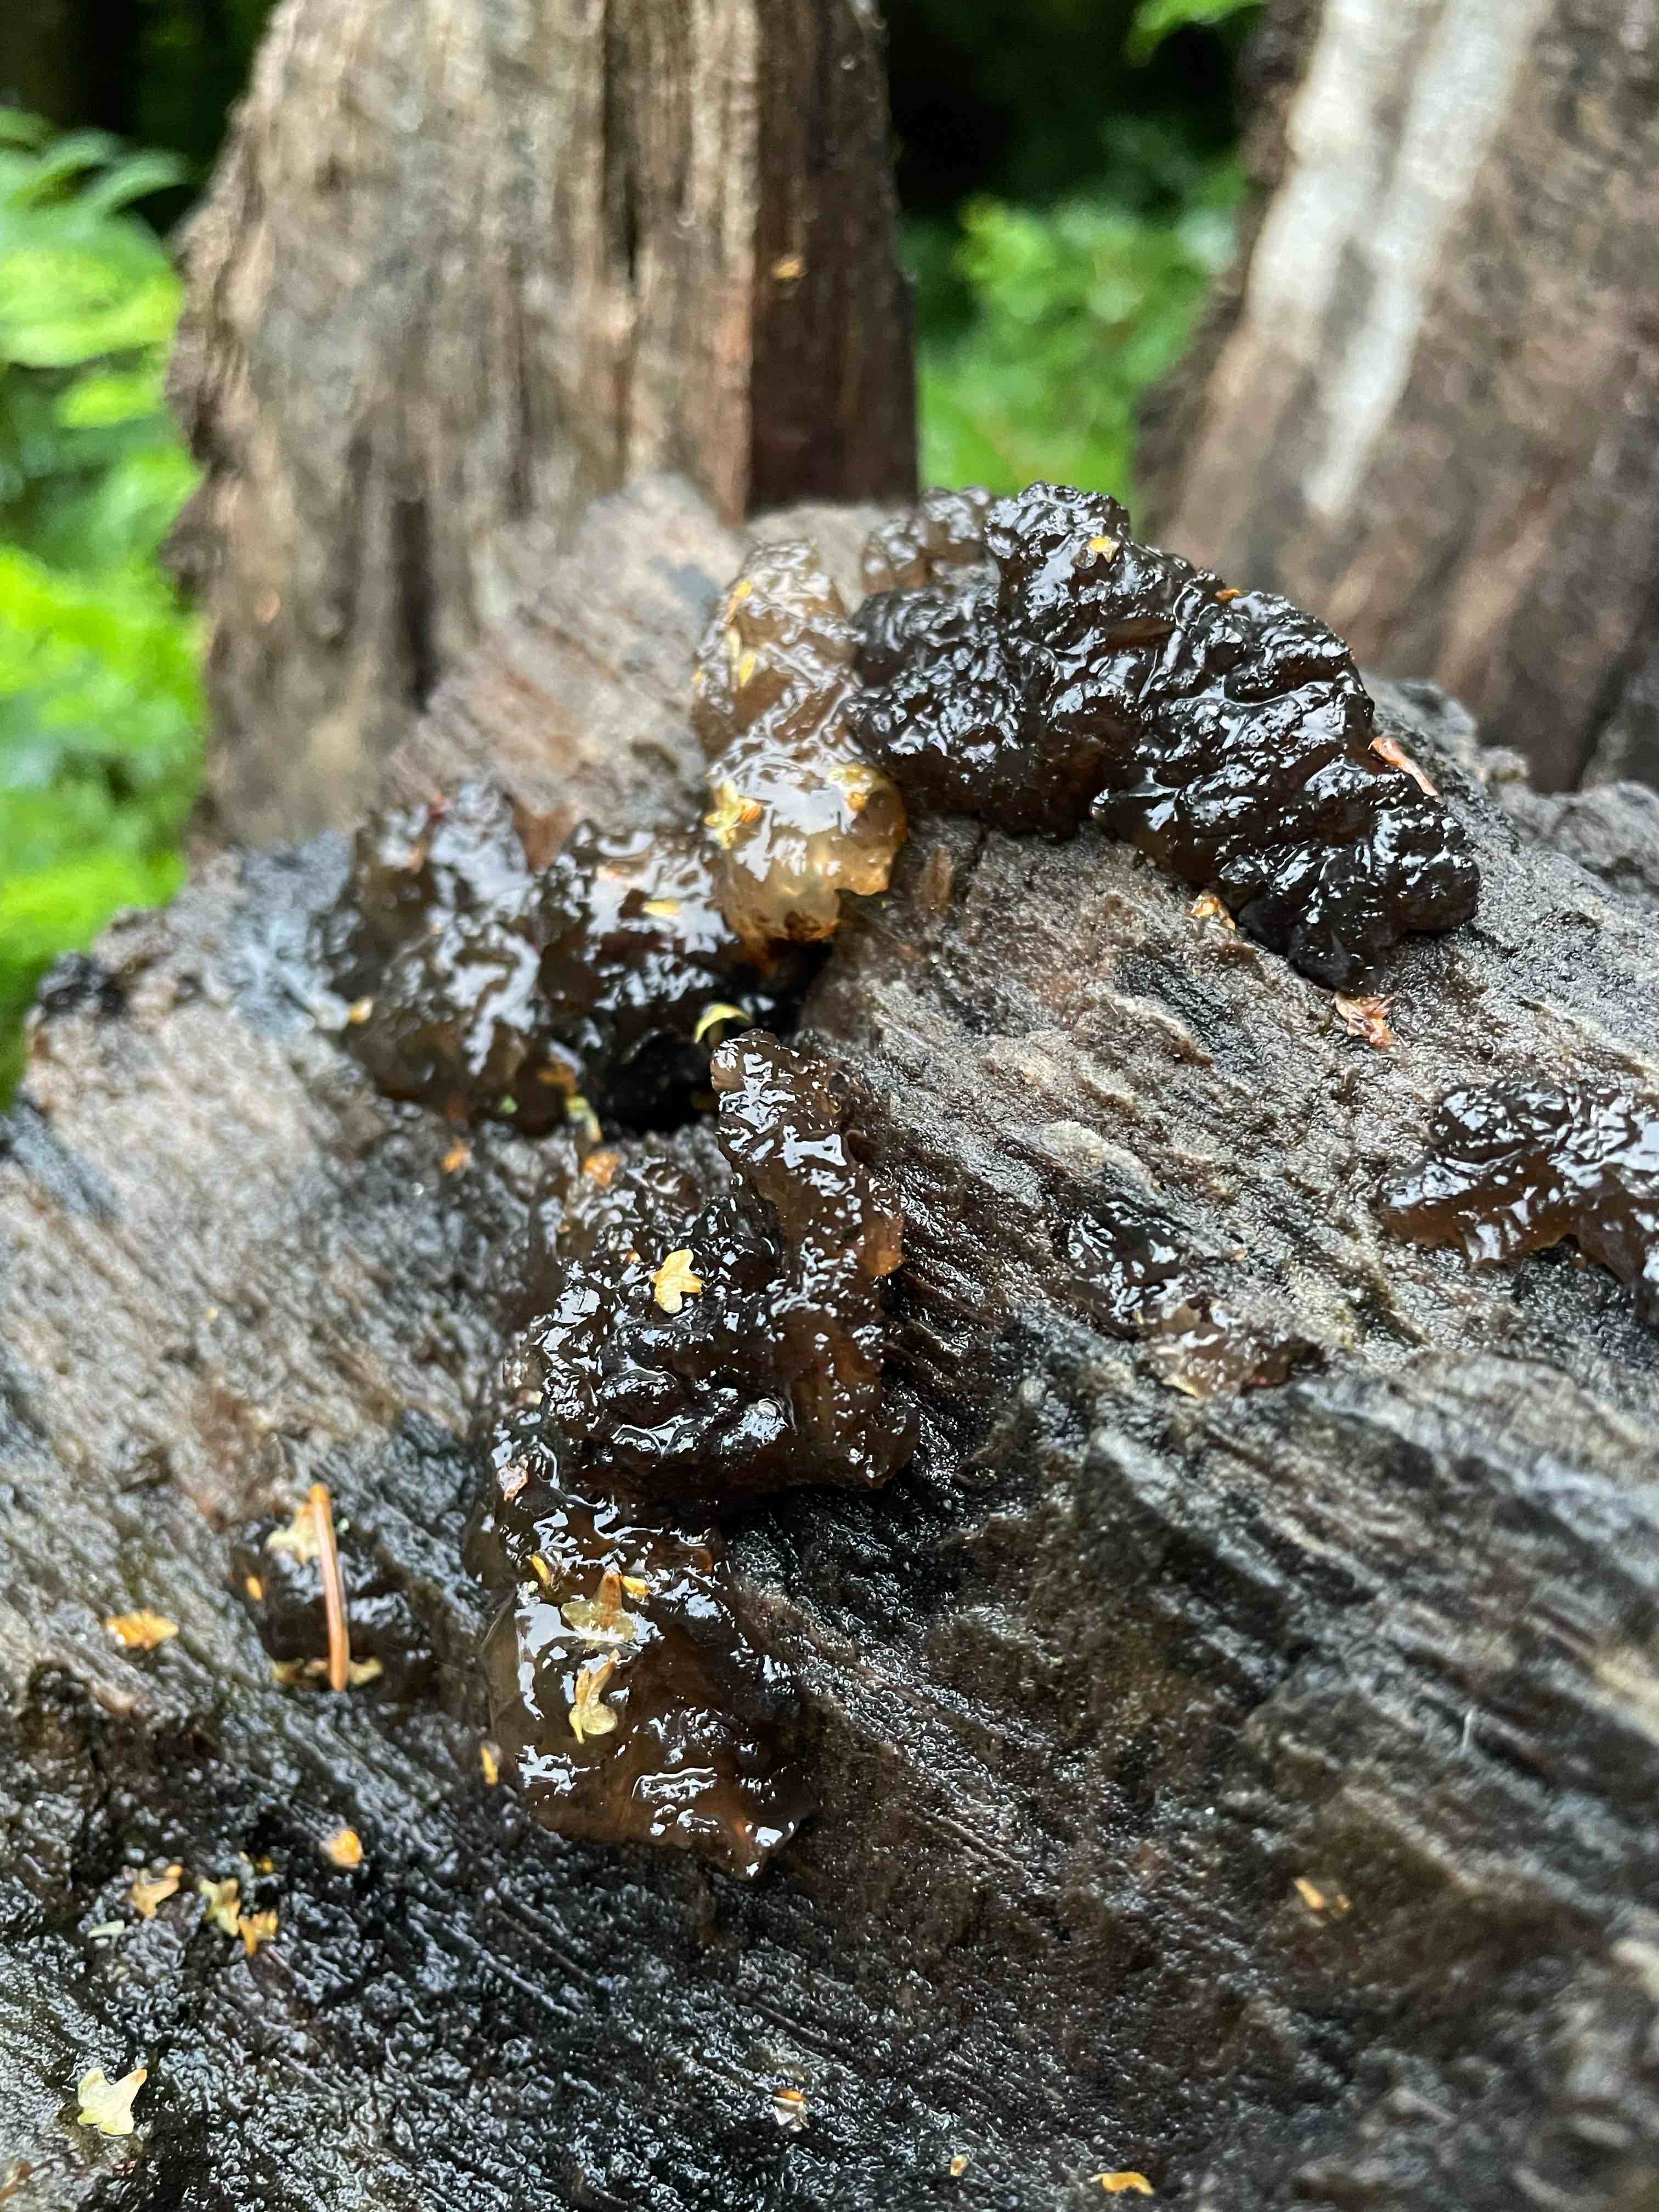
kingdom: Fungi
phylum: Basidiomycota
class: Agaricomycetes
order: Auriculariales
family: Auriculariaceae
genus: Exidia
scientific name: Exidia nigricans
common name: almindelig bævretop
